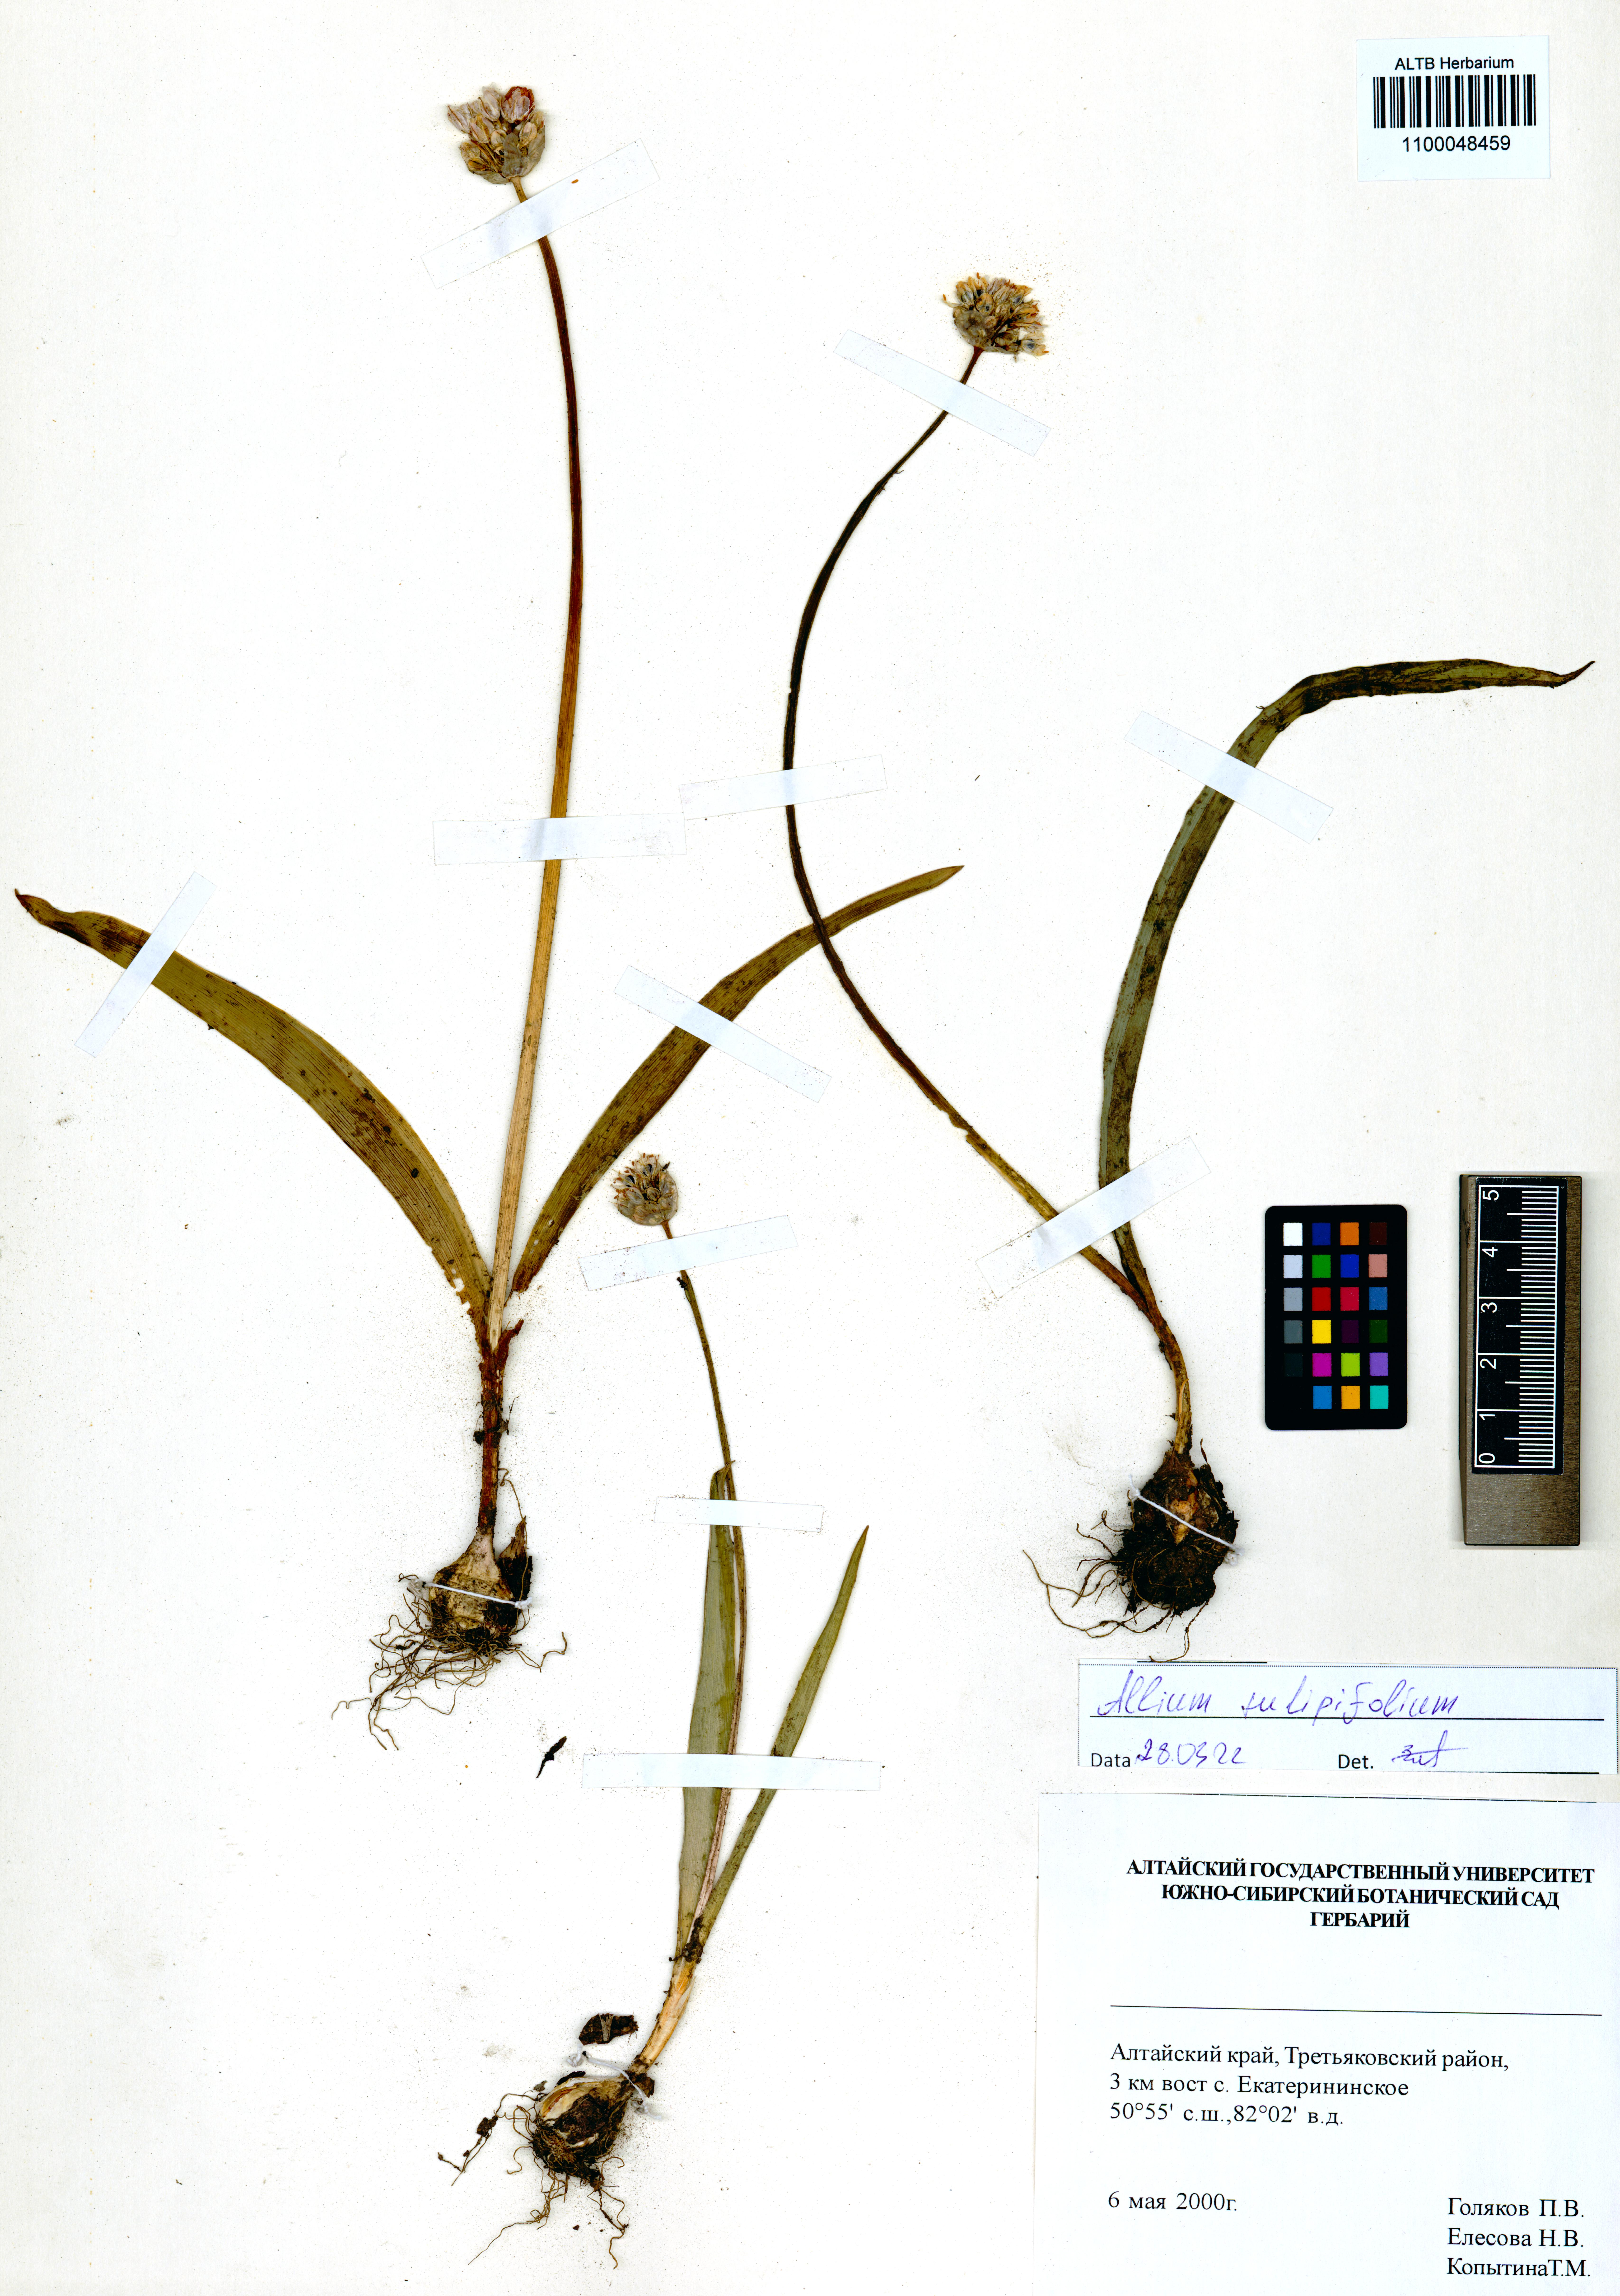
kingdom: Plantae
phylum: Tracheophyta
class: Liliopsida
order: Asparagales
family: Amaryllidaceae
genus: Allium
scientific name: Allium tulipifolium
